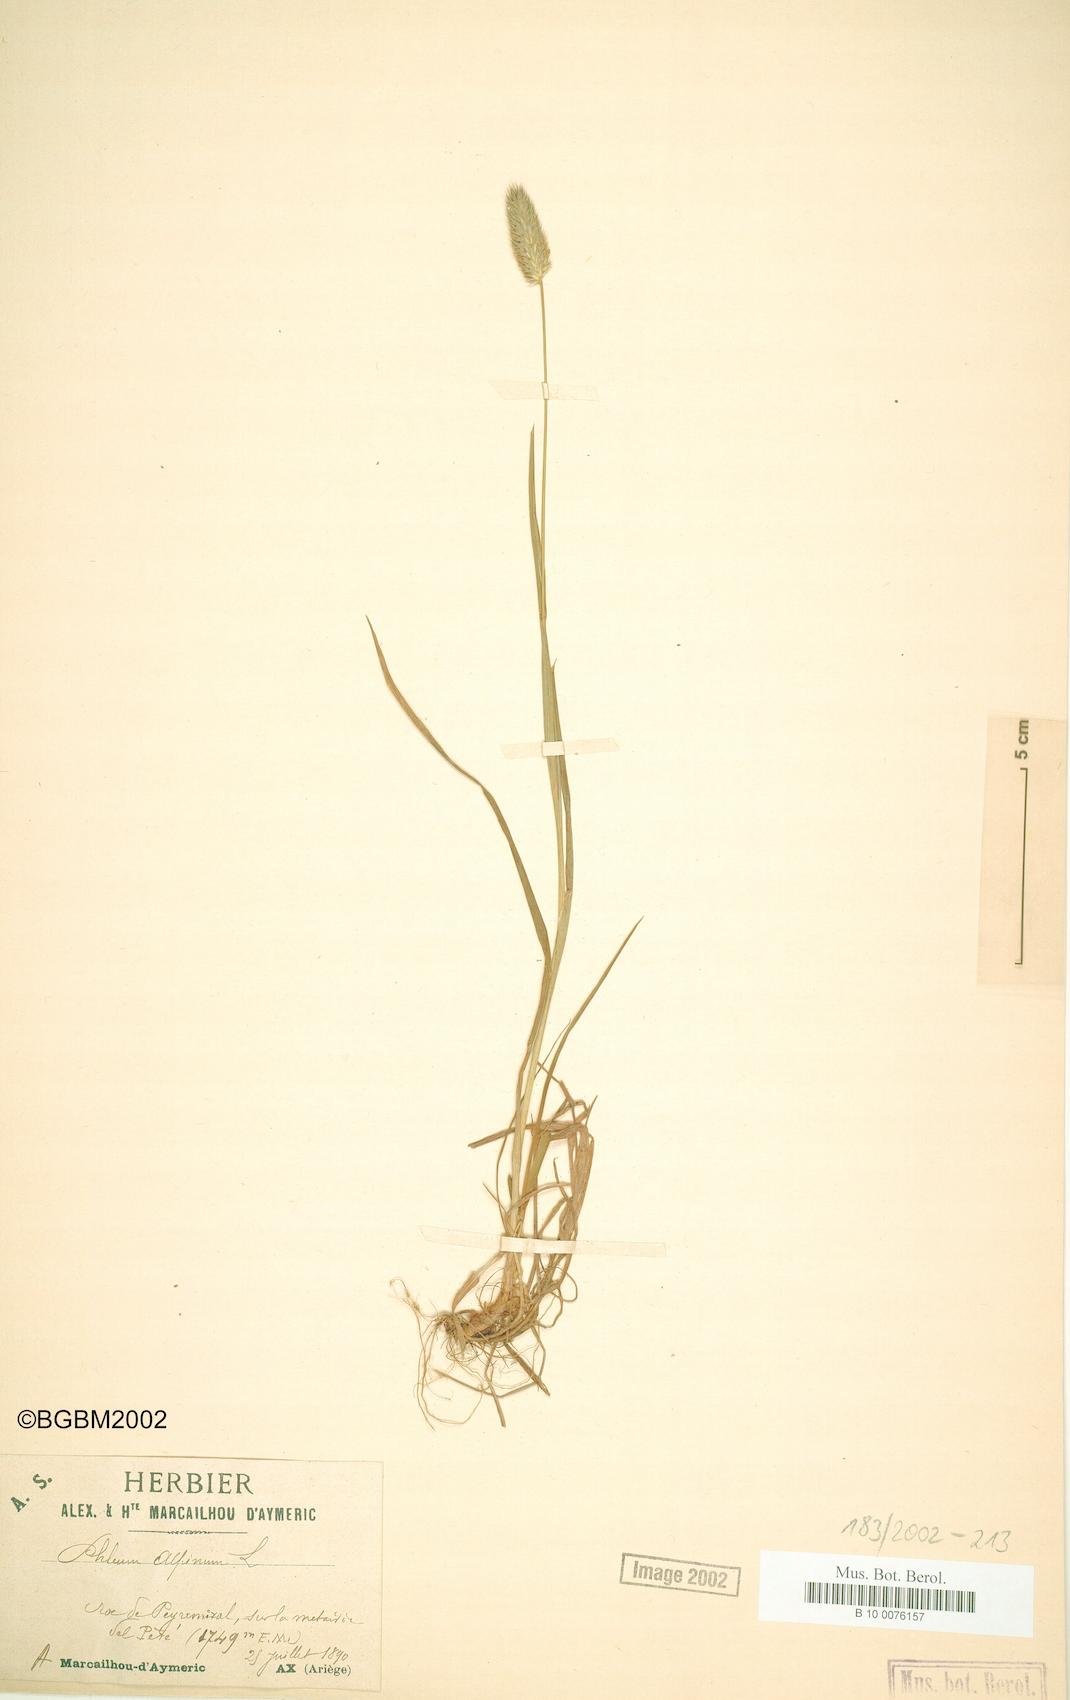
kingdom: Plantae
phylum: Tracheophyta
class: Liliopsida
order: Poales
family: Poaceae
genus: Phleum
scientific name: Phleum alpinum
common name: Alpine cat's-tail
